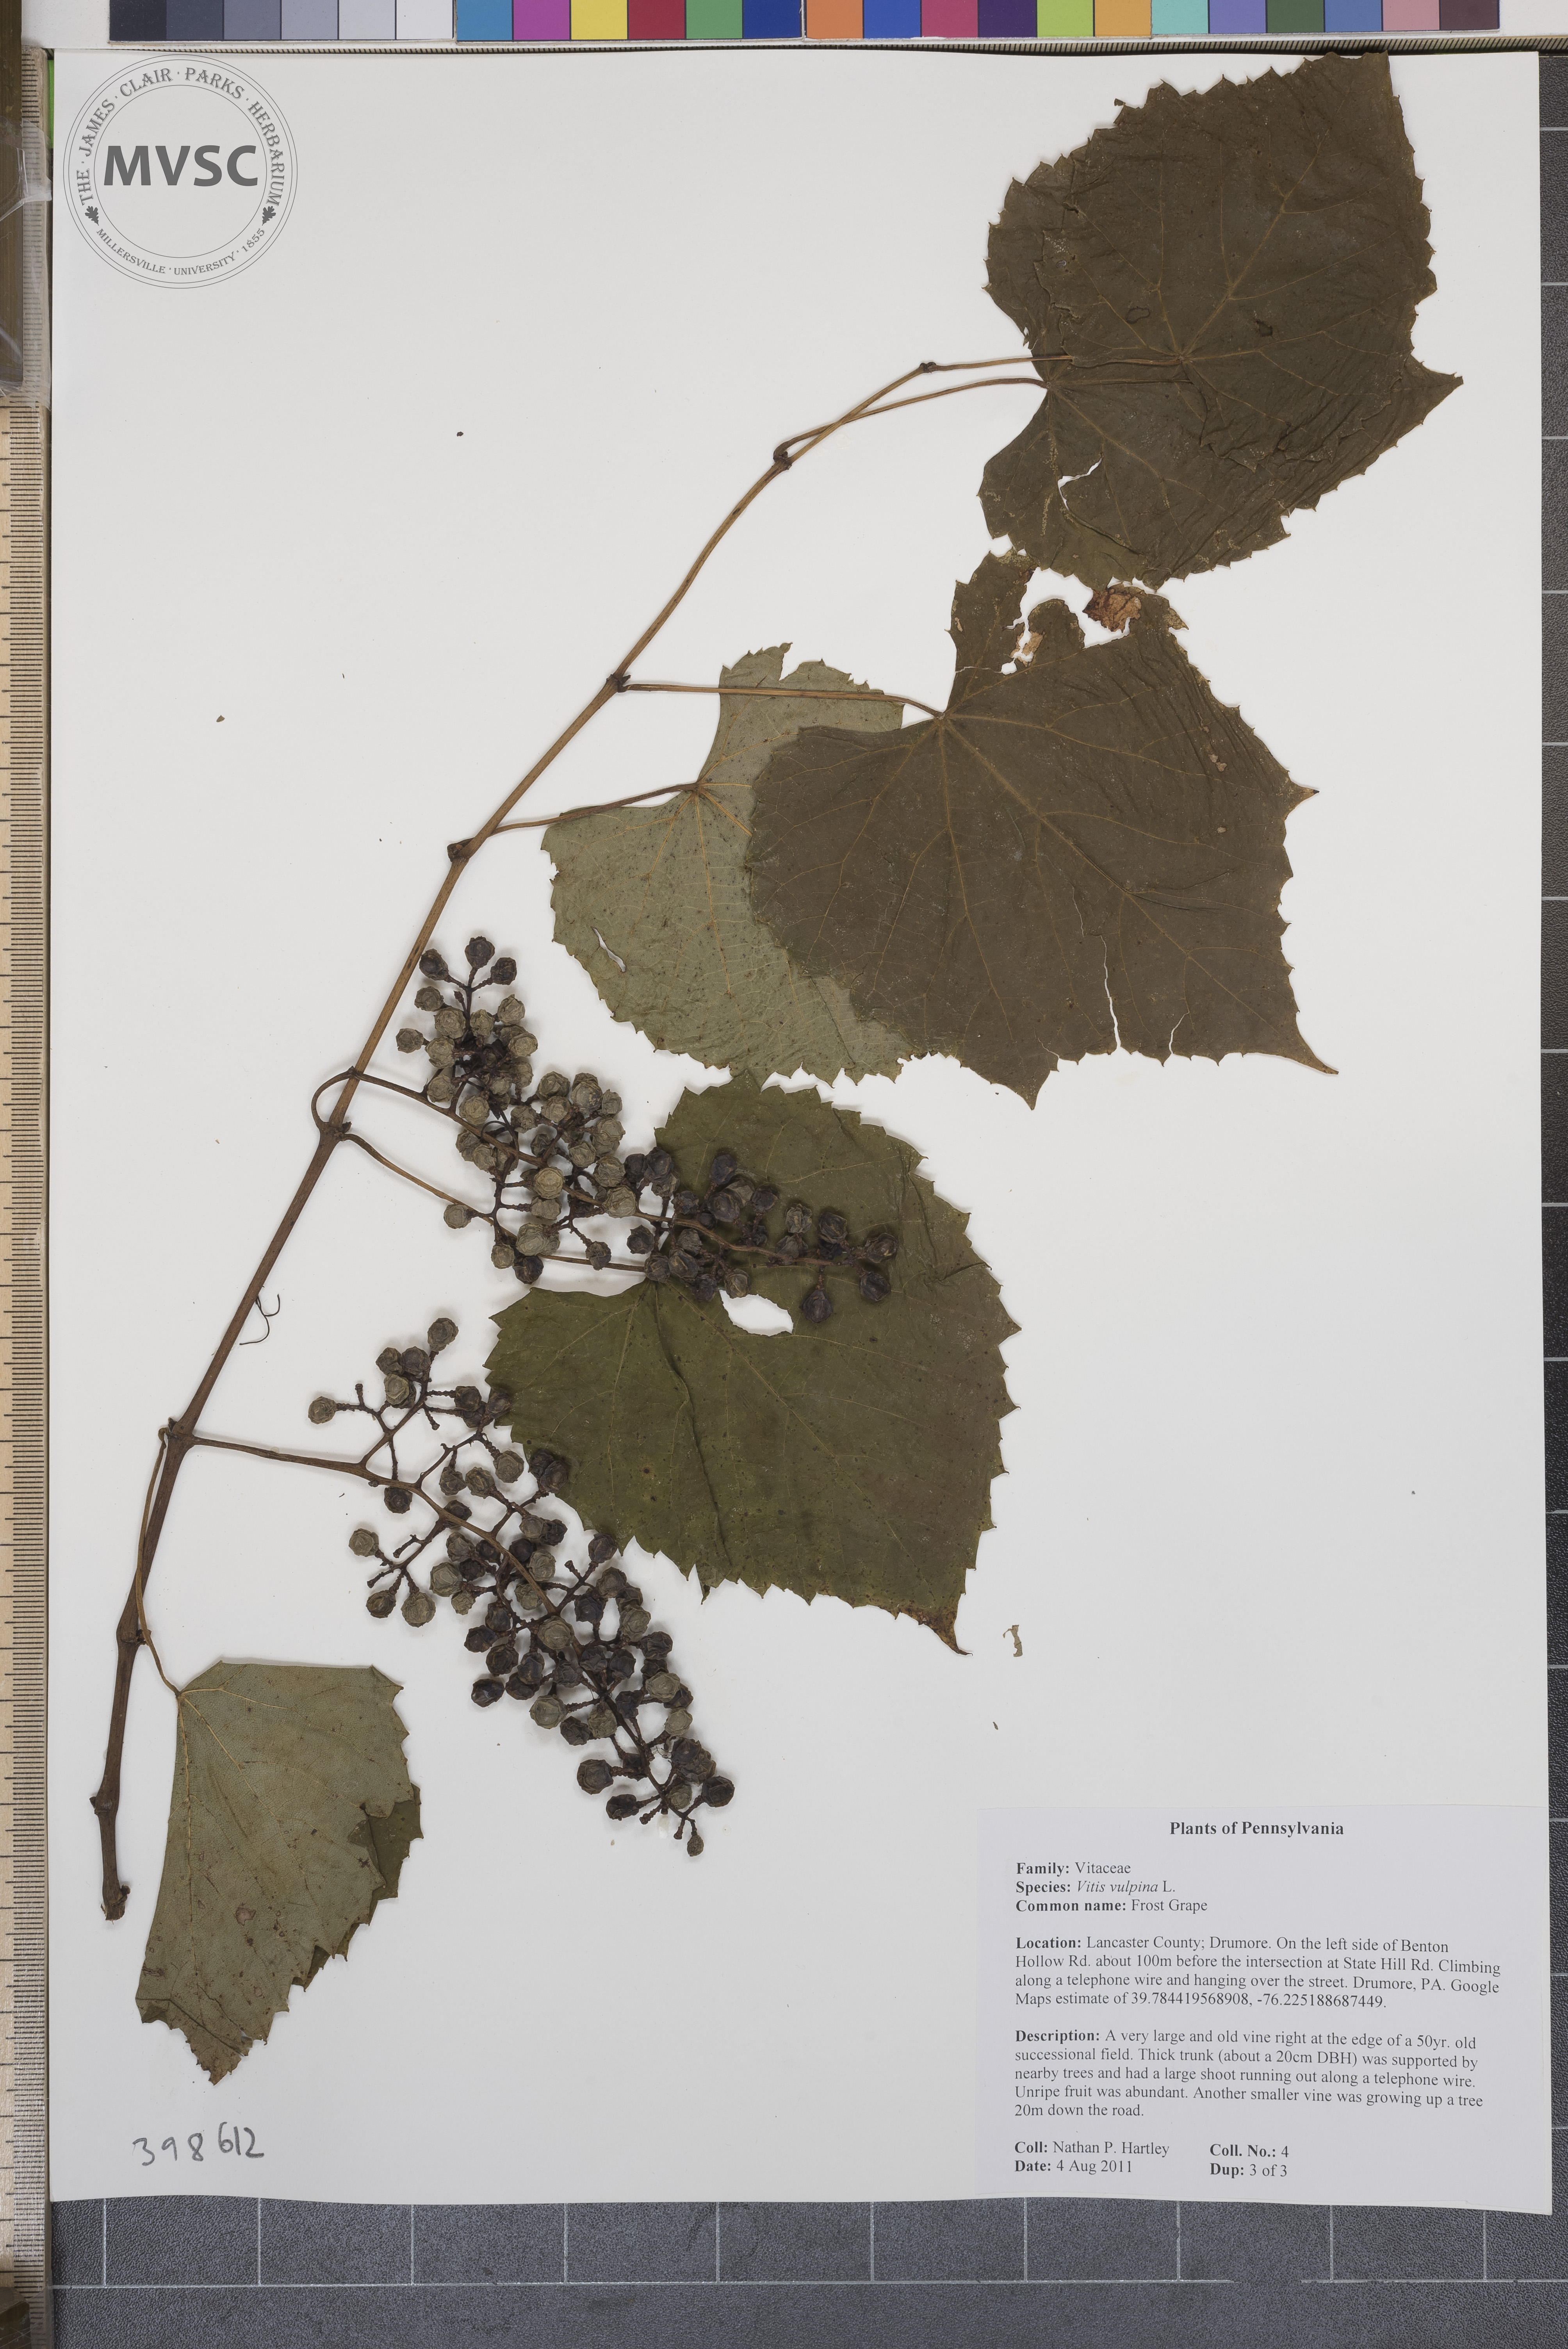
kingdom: Plantae
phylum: Tracheophyta
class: Magnoliopsida
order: Vitales
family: Vitaceae
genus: Vitis
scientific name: Vitis vulpina
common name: Frost grape
